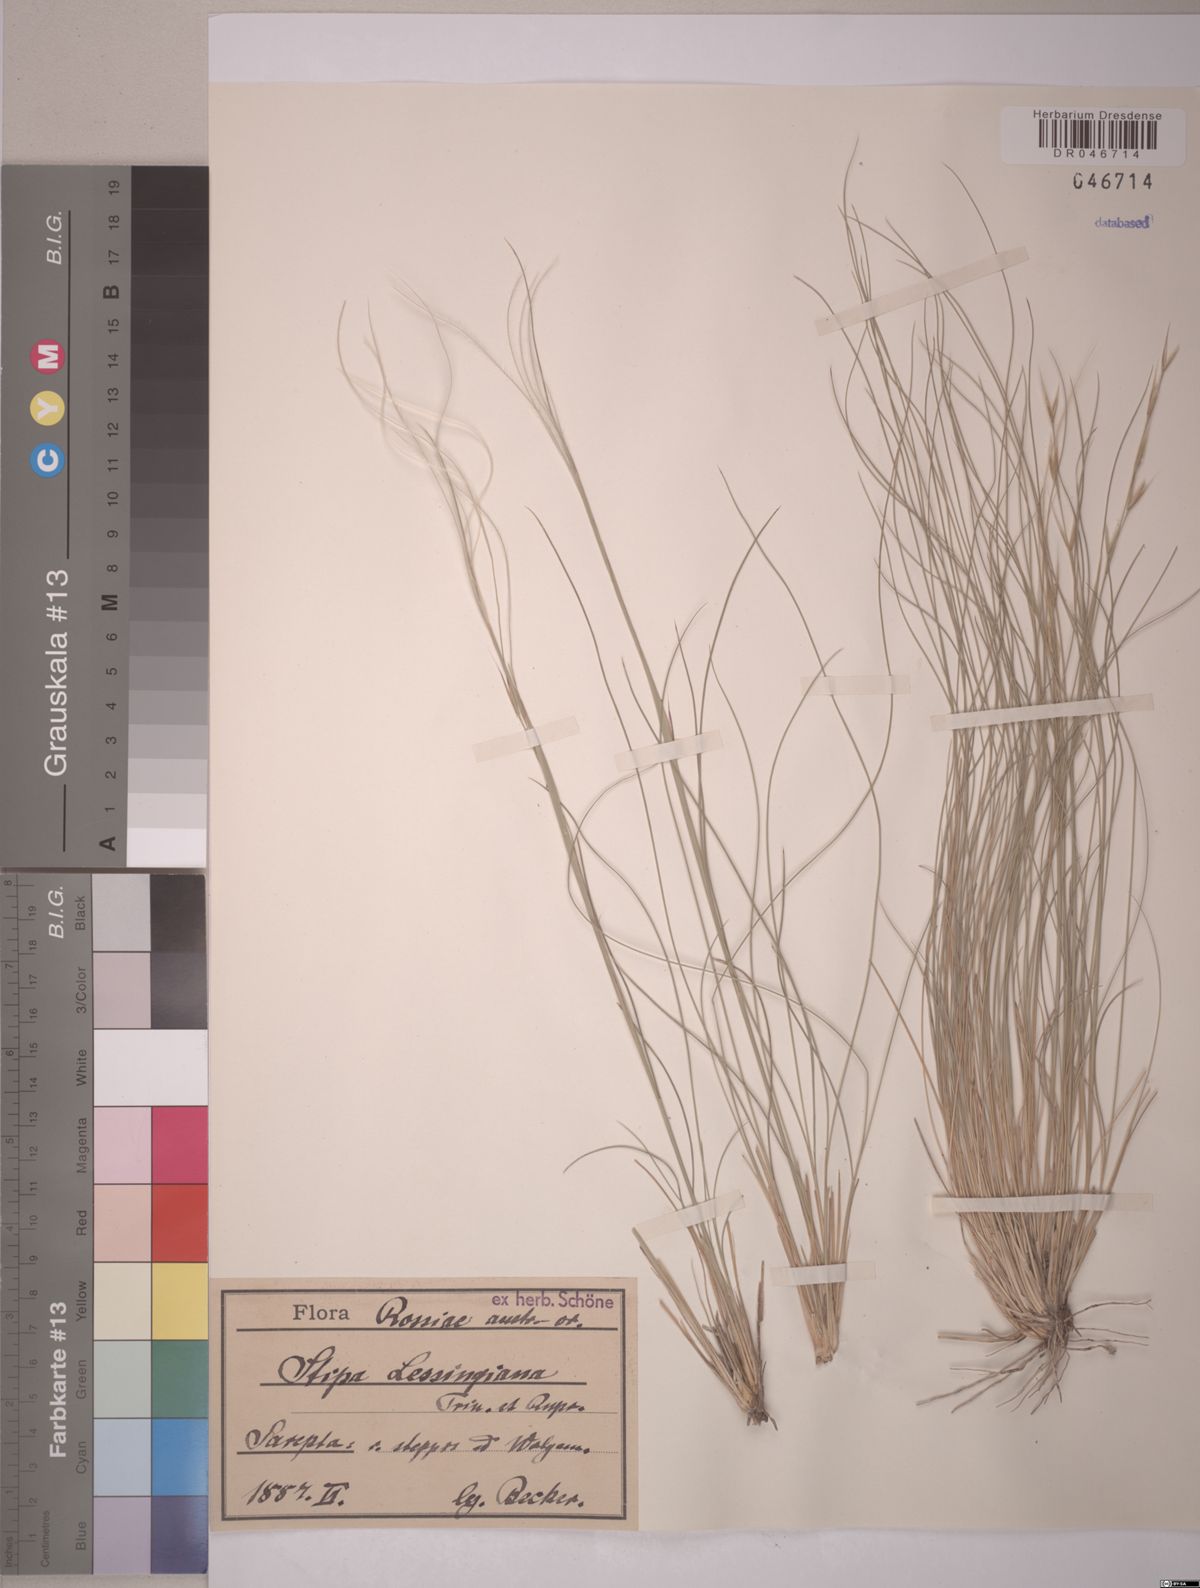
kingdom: Plantae
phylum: Tracheophyta
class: Liliopsida
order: Poales
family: Poaceae
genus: Stipa
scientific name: Stipa lessingiana
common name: Needle grass
